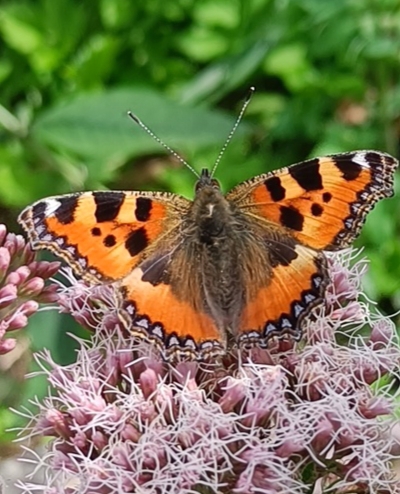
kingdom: Animalia
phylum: Arthropoda
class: Insecta
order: Lepidoptera
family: Nymphalidae
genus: Aglais
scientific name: Aglais urticae
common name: Nældens takvinge
